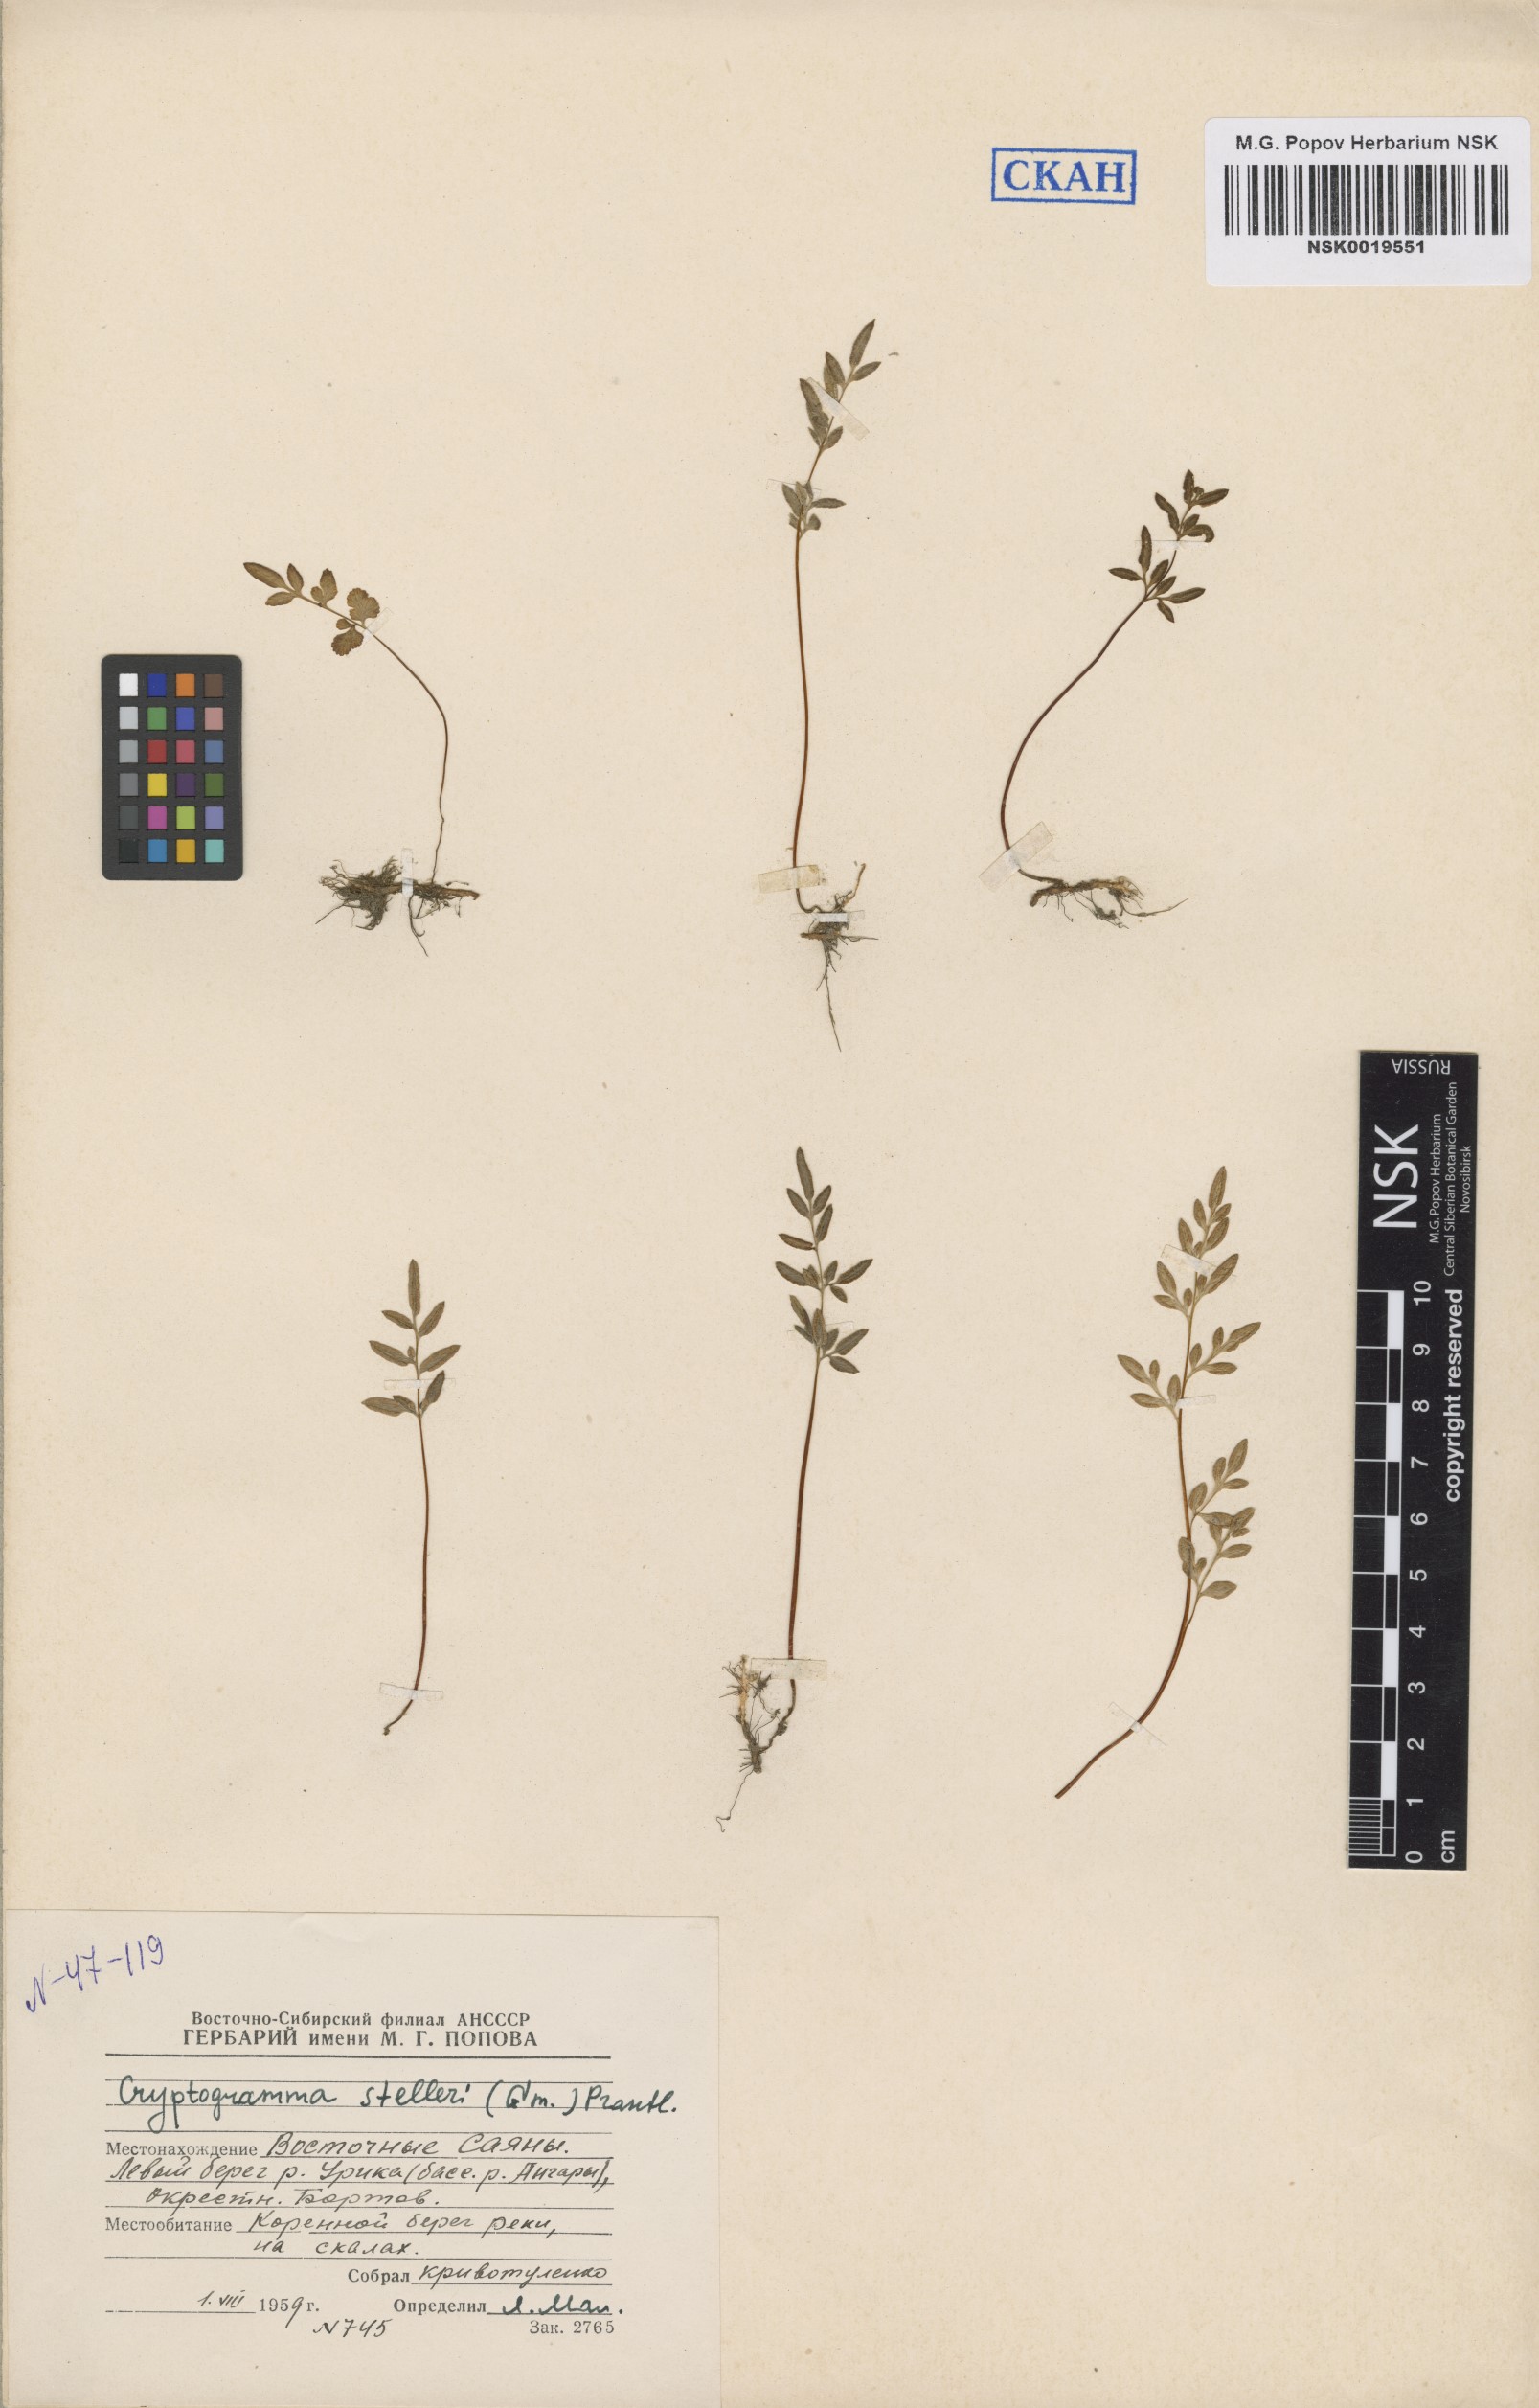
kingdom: Plantae
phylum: Tracheophyta
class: Polypodiopsida
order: Polypodiales
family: Pteridaceae
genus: Cryptogramma
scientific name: Cryptogramma stelleri
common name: Cliff-brake
